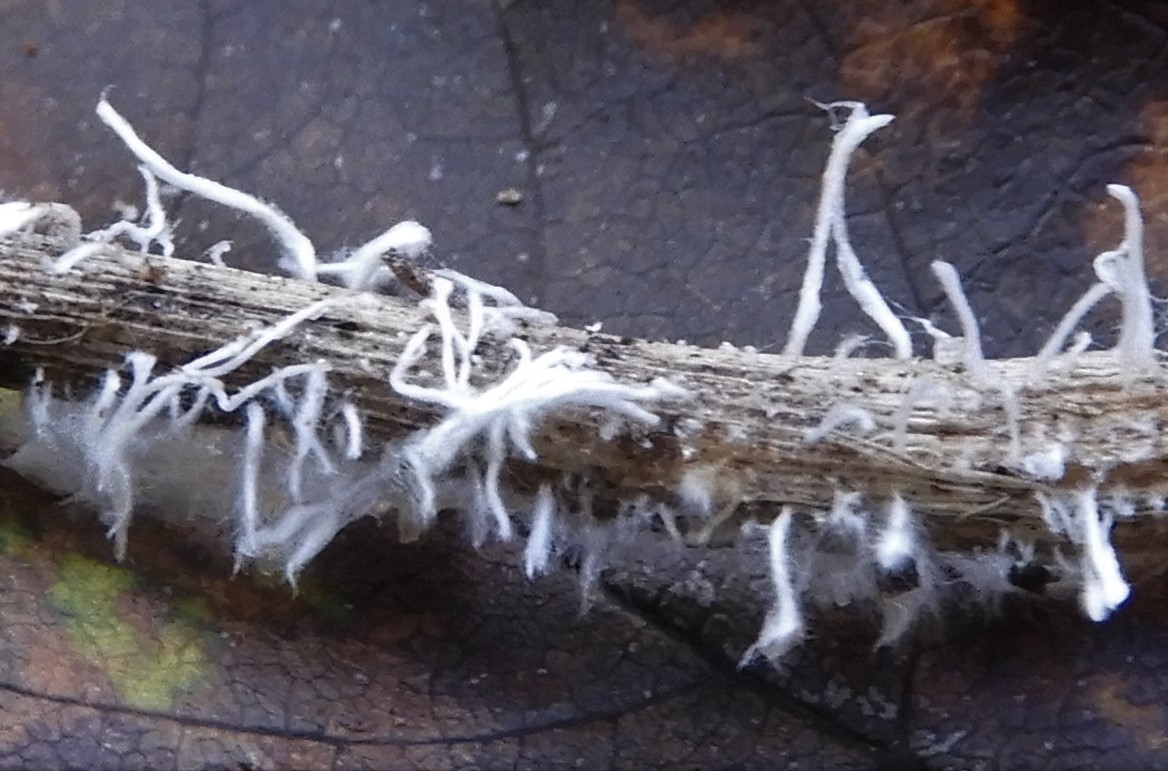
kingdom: Fungi
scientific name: Fungi
